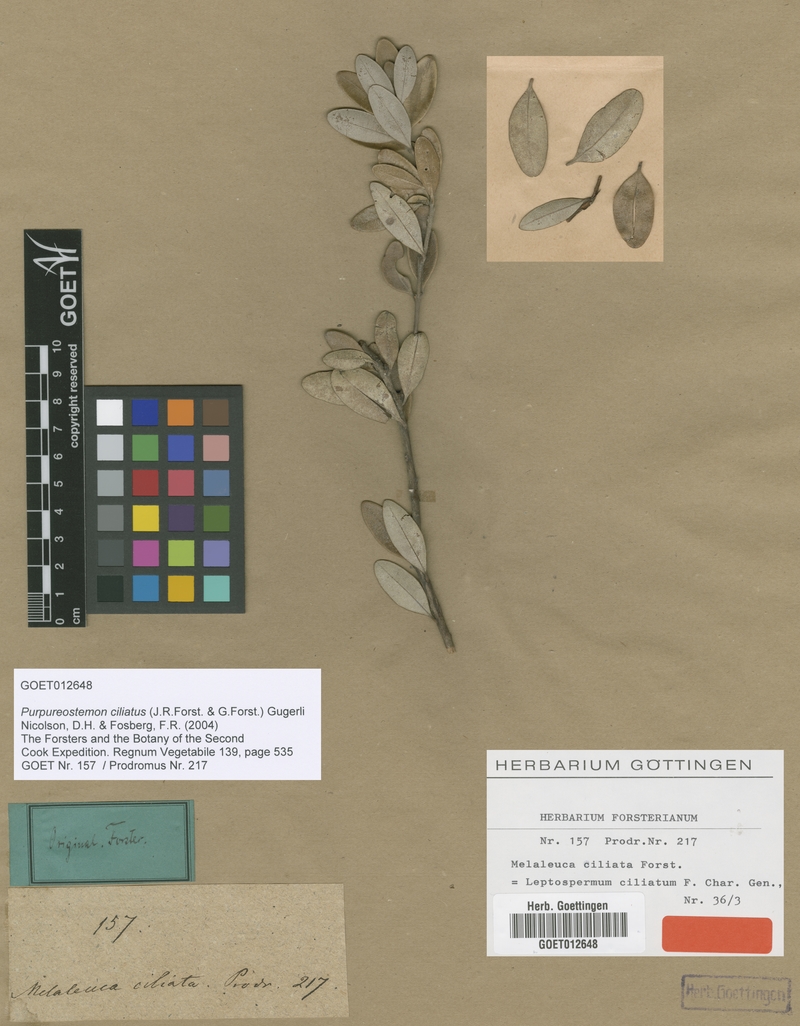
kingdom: Plantae
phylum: Tracheophyta
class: Magnoliopsida
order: Myrtales
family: Myrtaceae
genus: Purpureostemon
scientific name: Purpureostemon ciliatus
